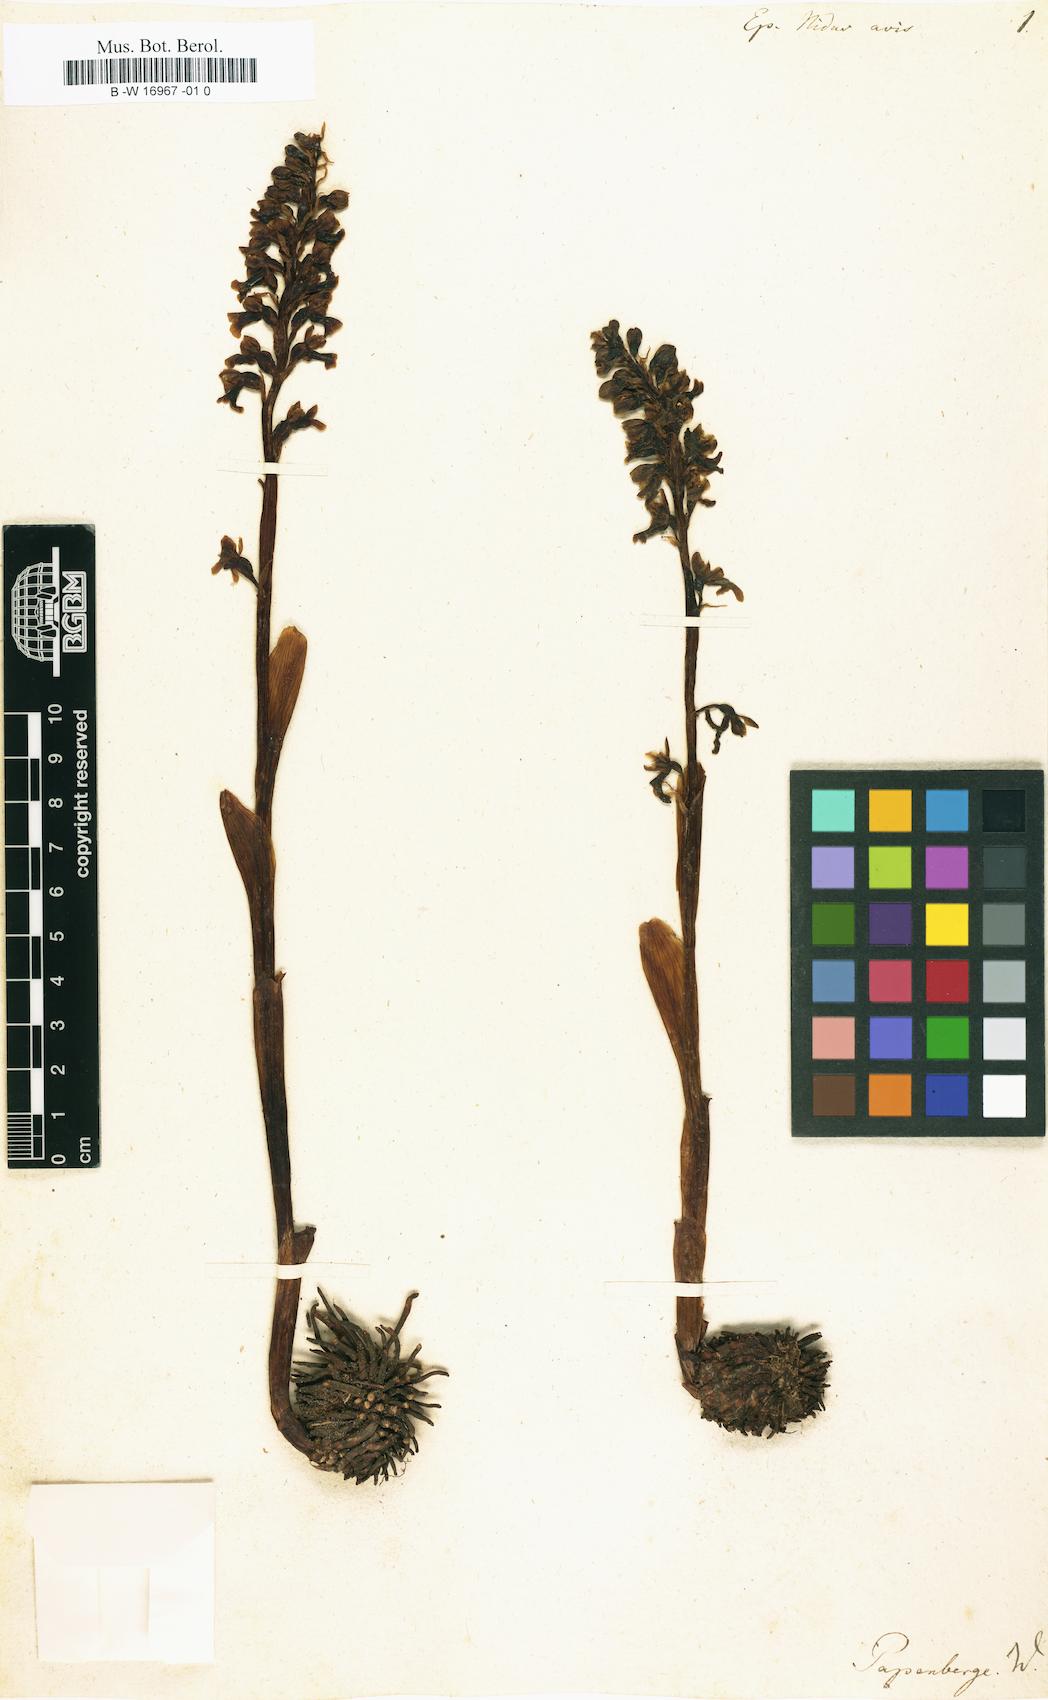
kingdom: Plantae
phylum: Tracheophyta
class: Liliopsida
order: Asparagales
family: Orchidaceae
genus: Neottia
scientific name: Neottia nidus-avis
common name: Bird's-nest orchid
